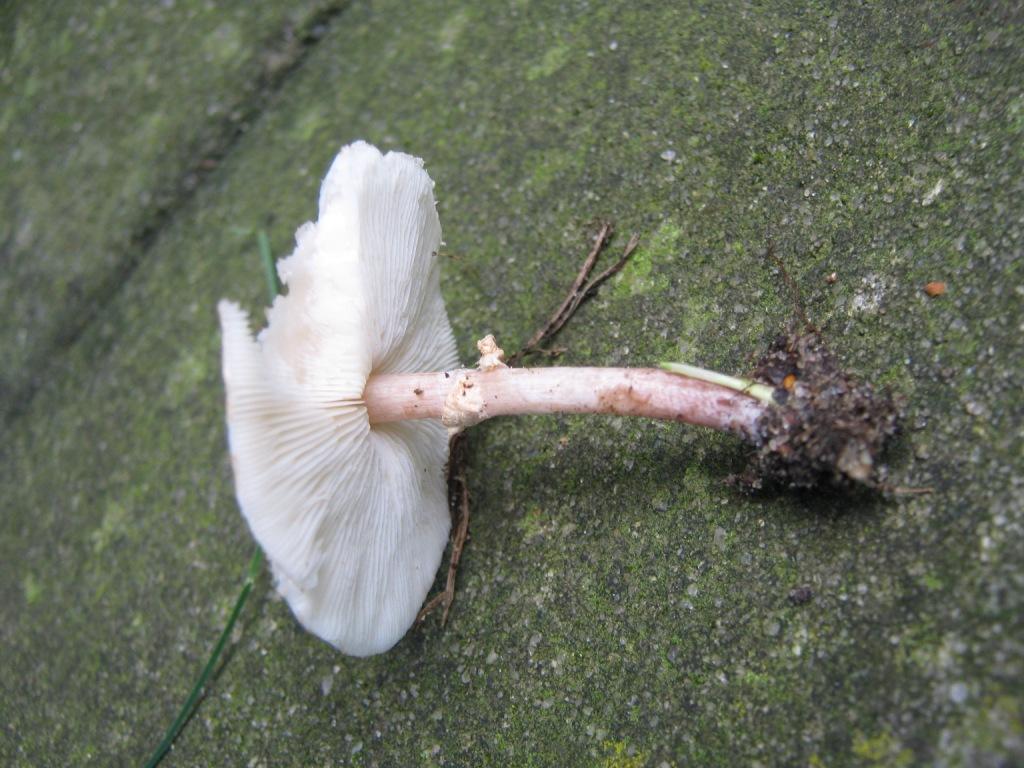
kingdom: Fungi
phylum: Basidiomycota
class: Agaricomycetes
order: Agaricales
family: Agaricaceae
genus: Lepiota
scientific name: Lepiota cristata
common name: stinkende parasolhat
